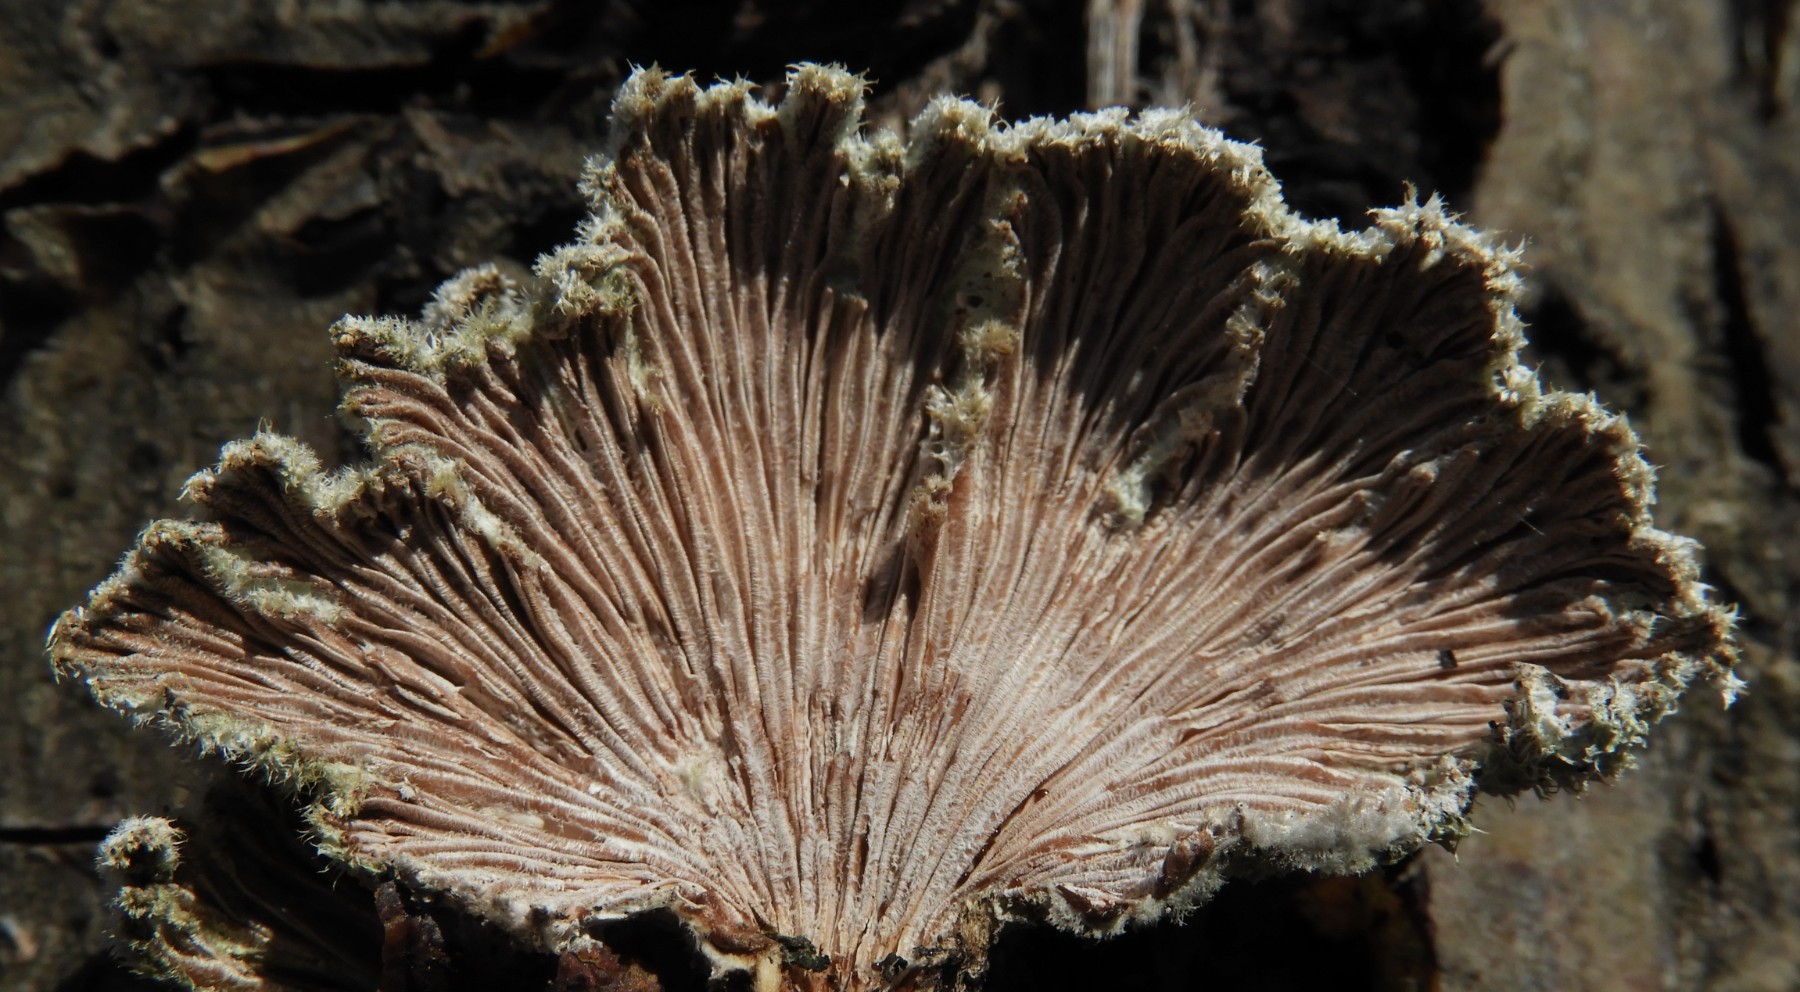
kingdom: Fungi
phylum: Basidiomycota
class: Agaricomycetes
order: Agaricales
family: Schizophyllaceae
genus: Schizophyllum
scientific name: Schizophyllum commune
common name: kløvblad
